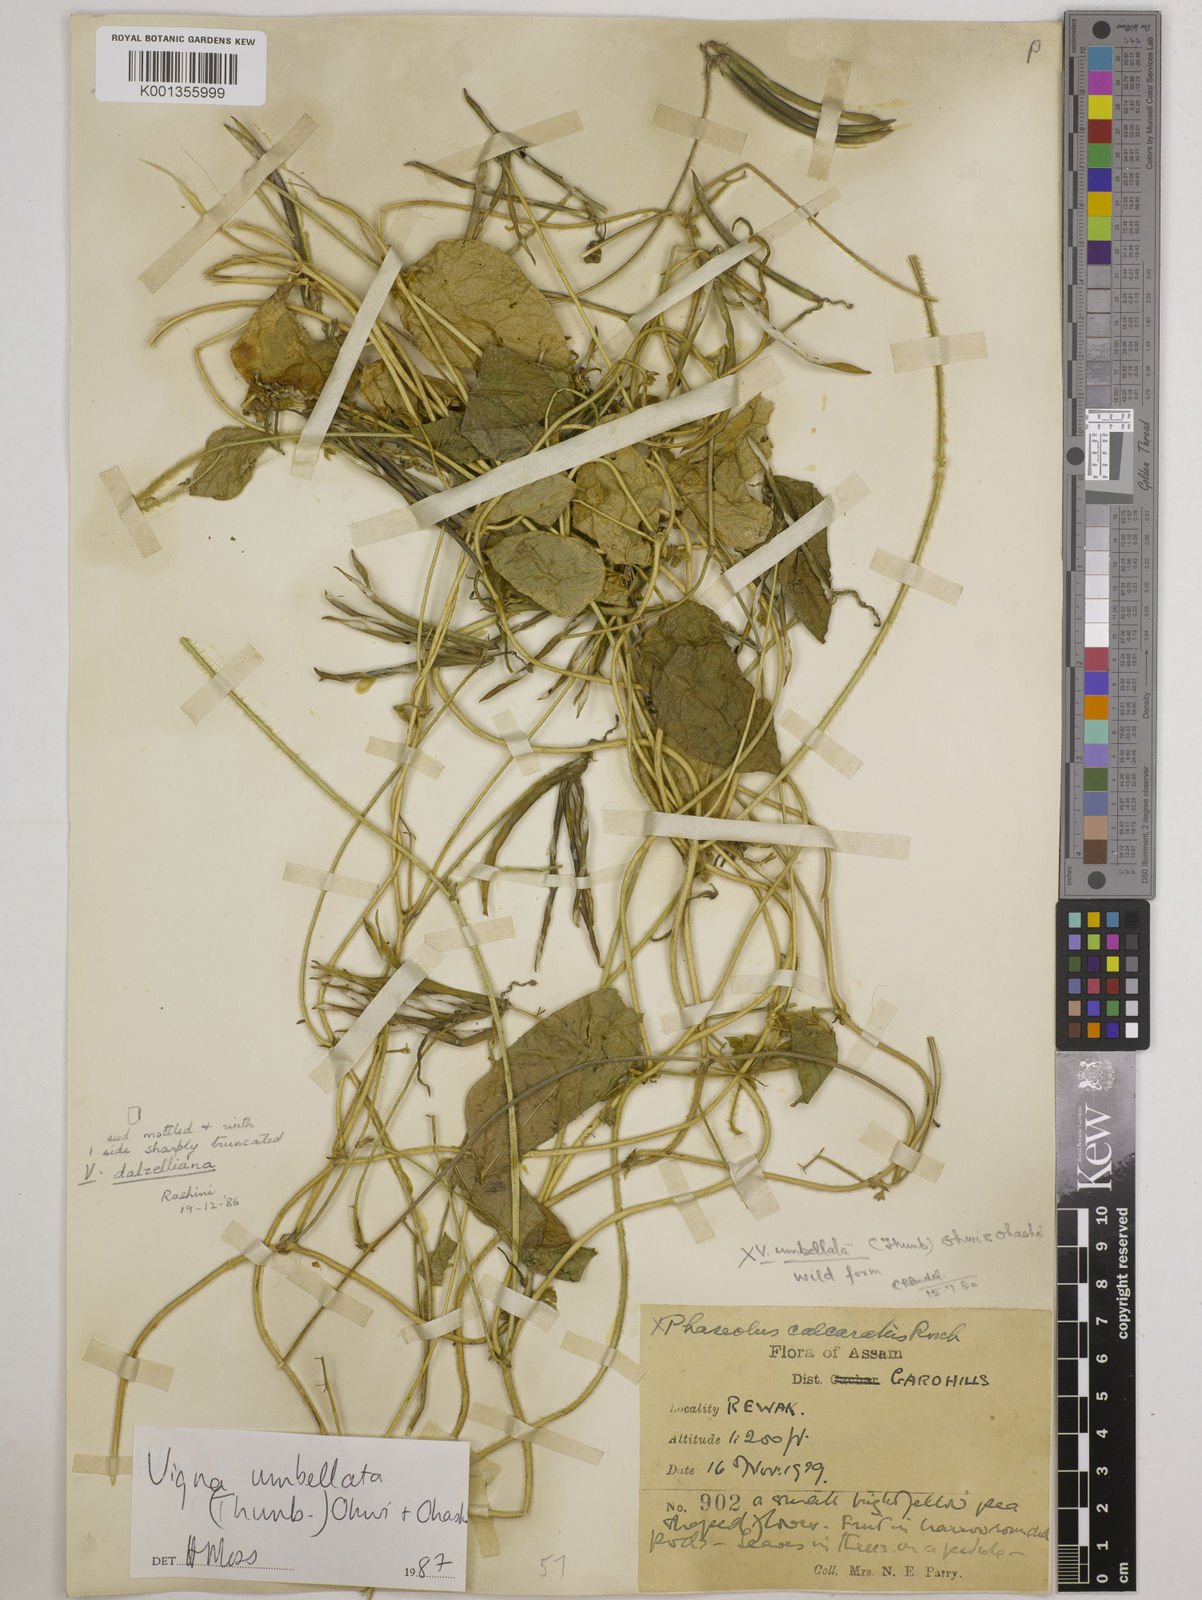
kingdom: Plantae
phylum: Tracheophyta
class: Magnoliopsida
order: Fabales
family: Fabaceae
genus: Vigna
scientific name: Vigna dalzelliana
